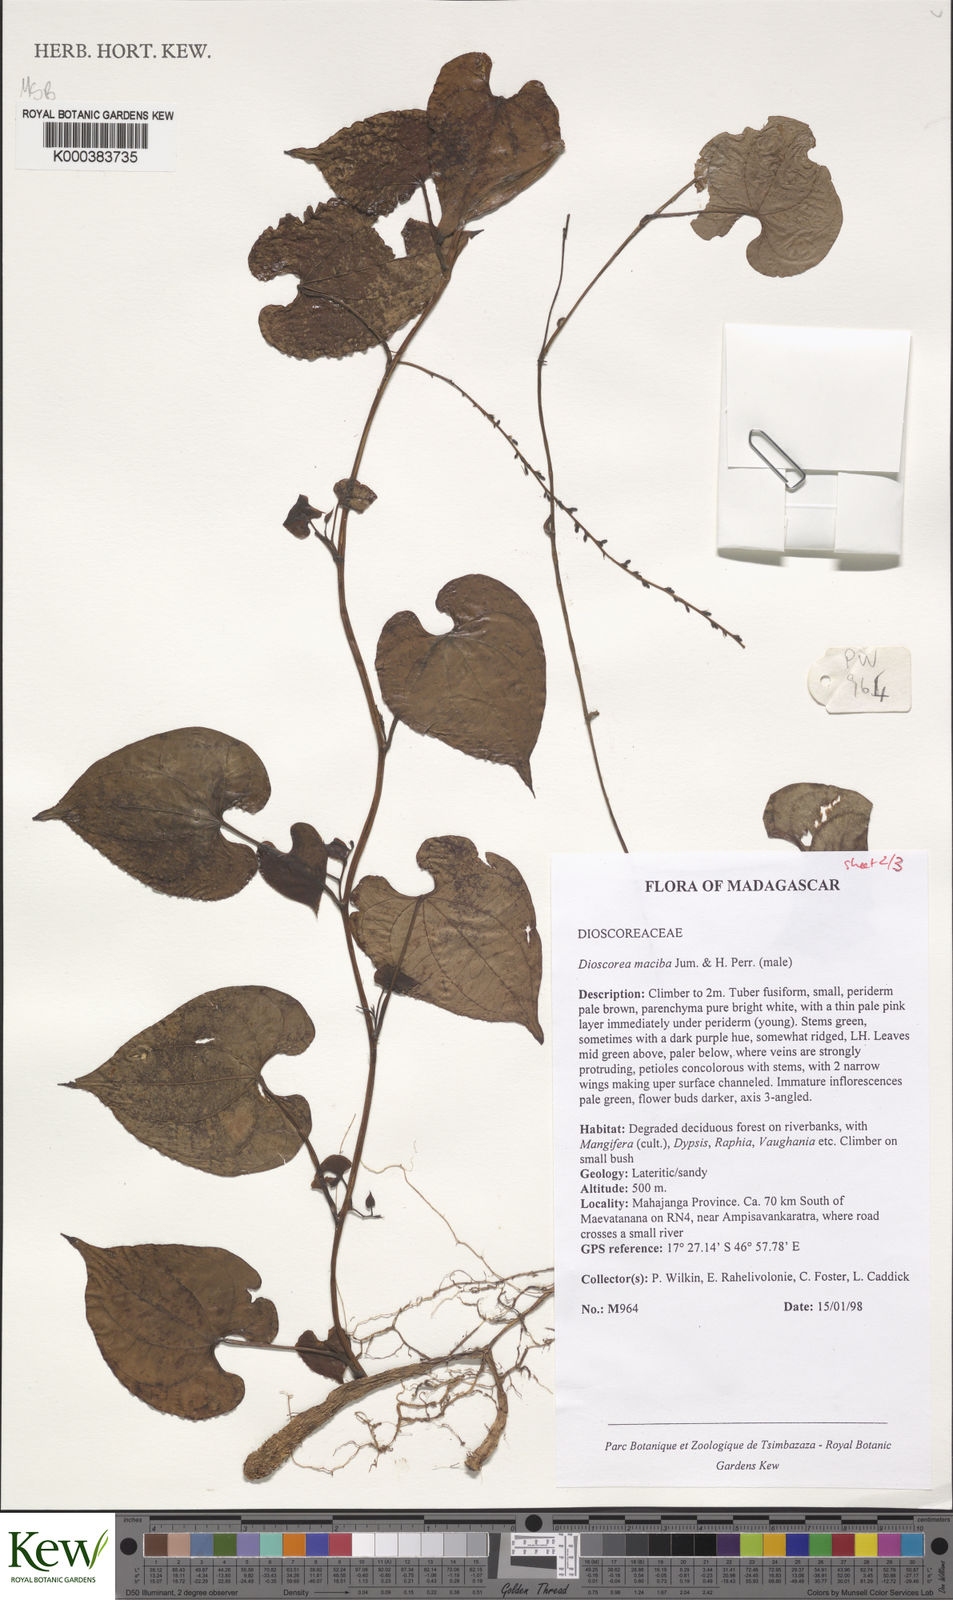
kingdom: Plantae
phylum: Tracheophyta
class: Liliopsida
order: Dioscoreales
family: Dioscoreaceae
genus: Dioscorea
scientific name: Dioscorea
